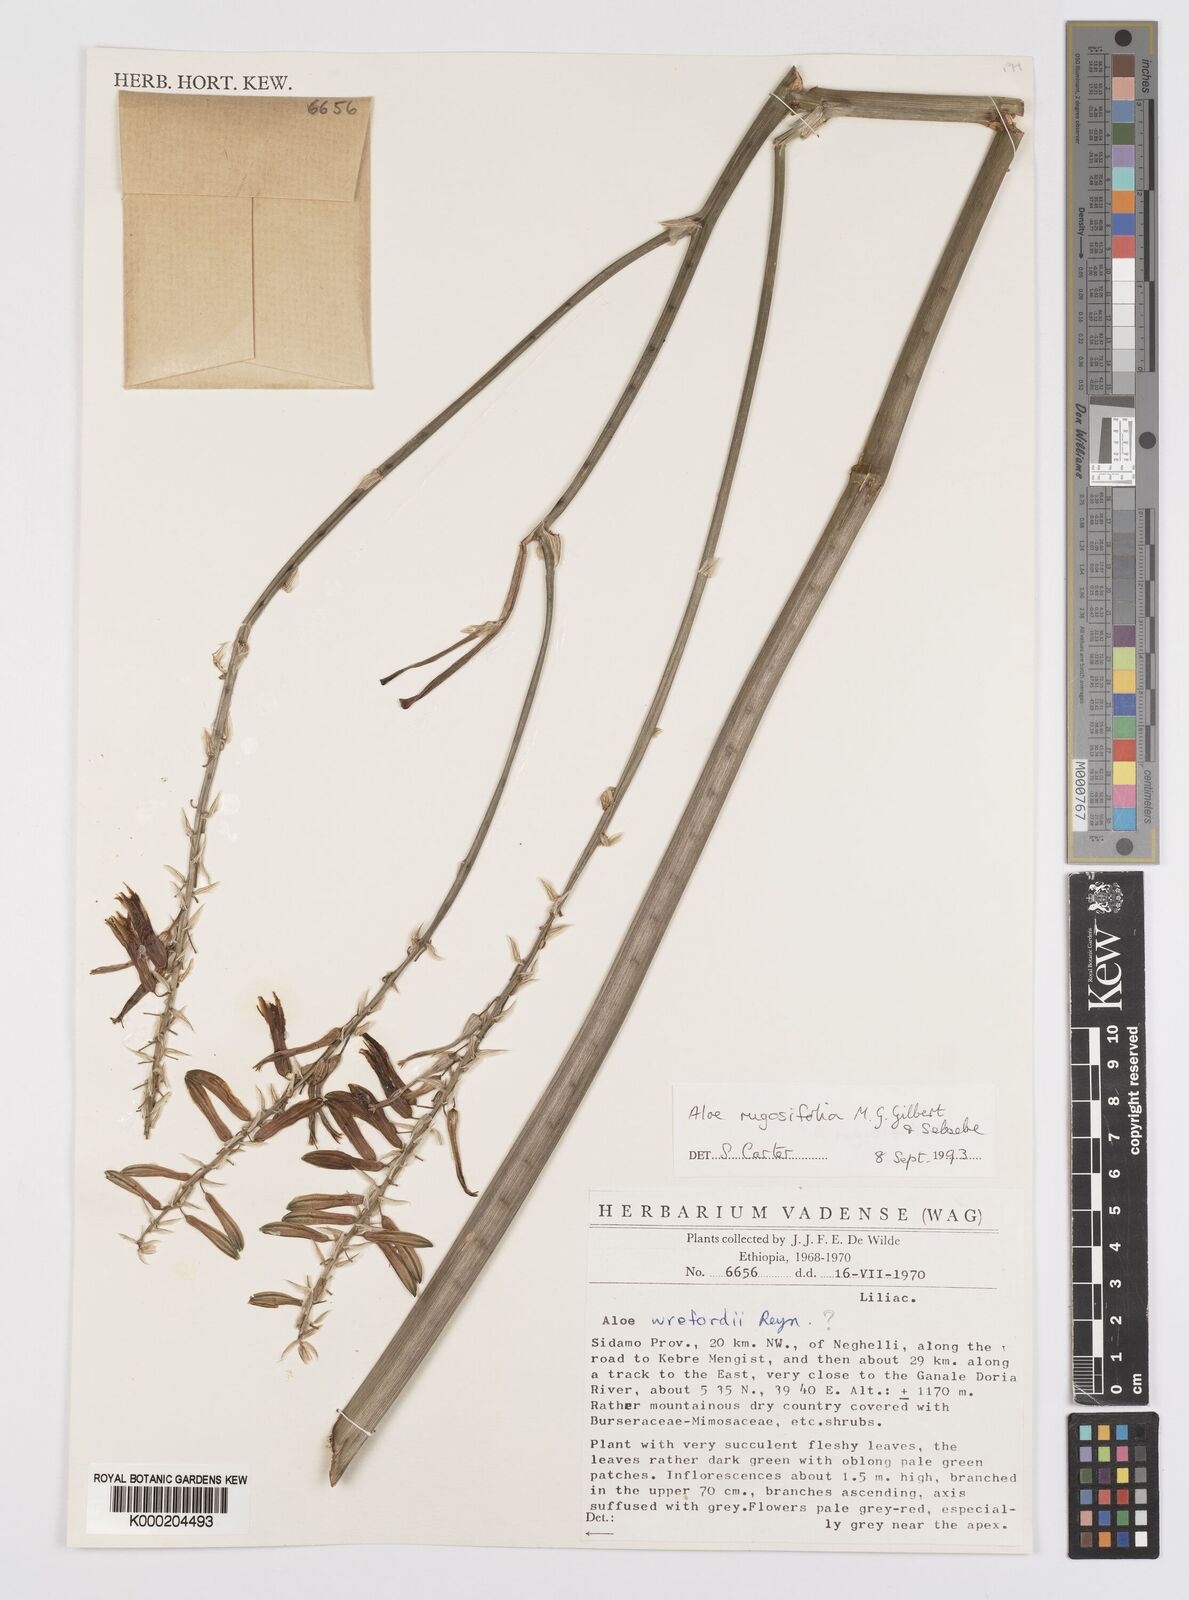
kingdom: Plantae
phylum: Tracheophyta
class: Liliopsida
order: Asparagales
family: Asphodelaceae
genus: Aloe
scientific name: Aloe rugosifolia
